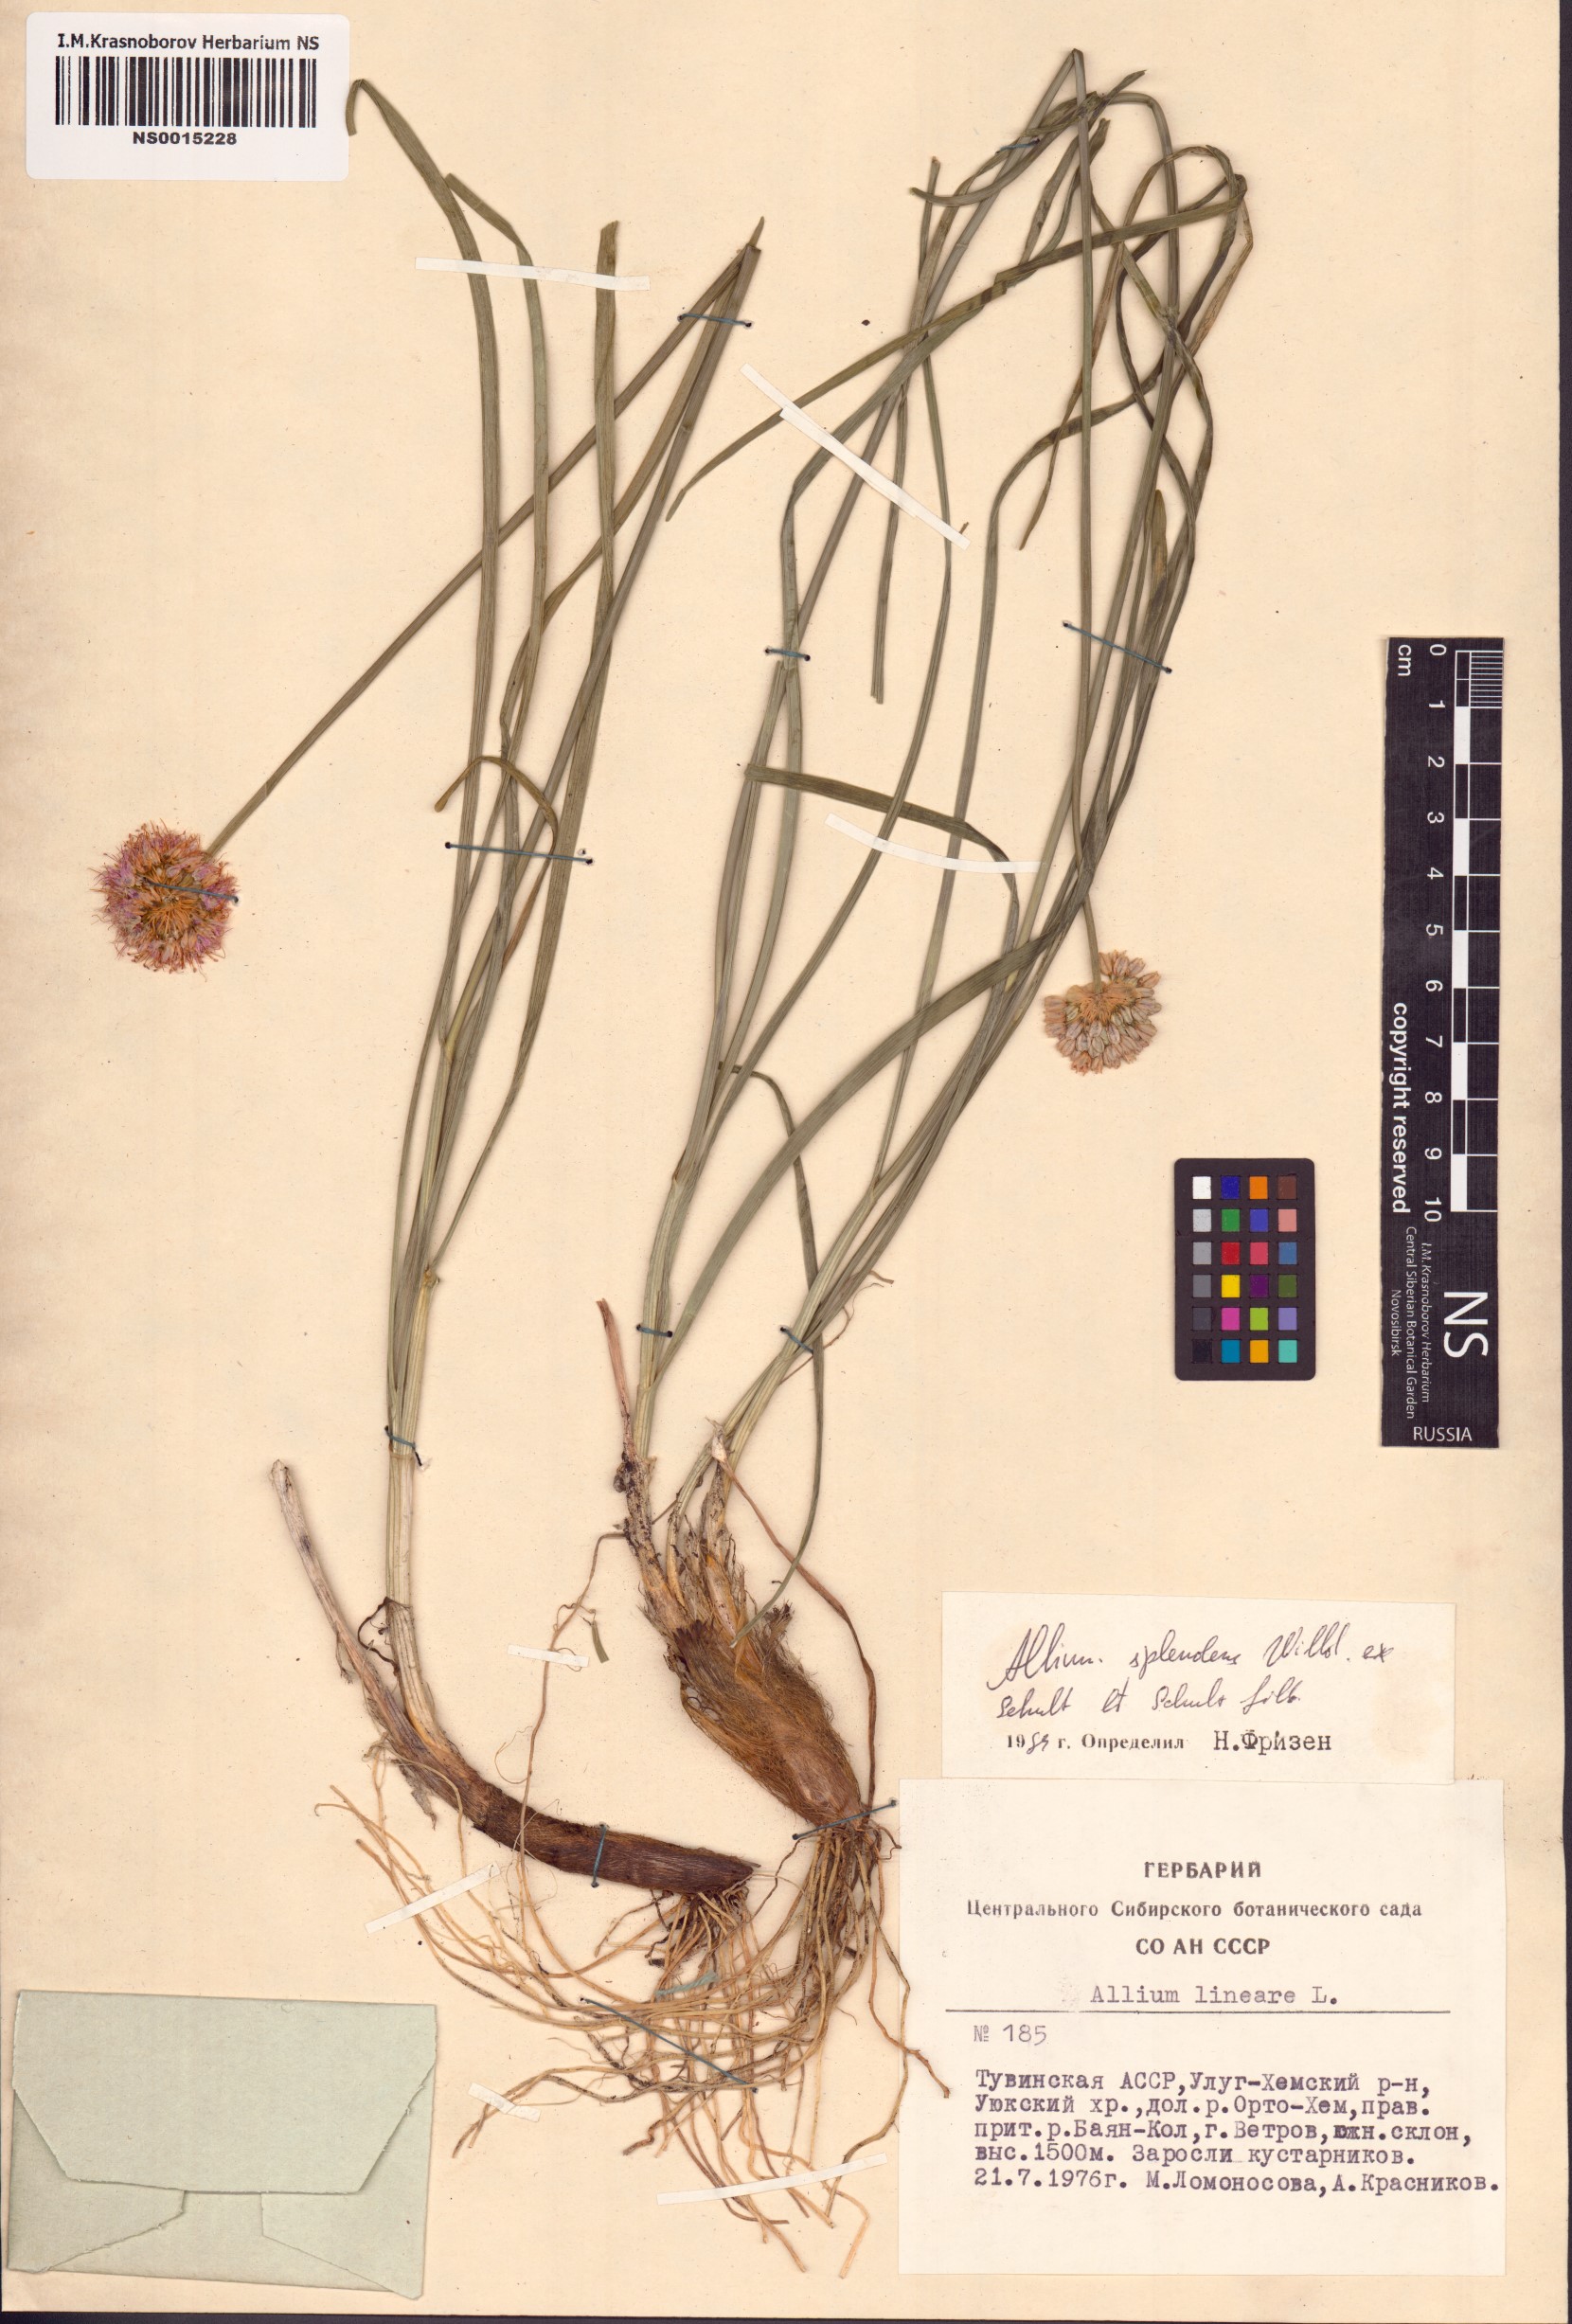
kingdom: Plantae
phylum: Tracheophyta
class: Liliopsida
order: Asparagales
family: Amaryllidaceae
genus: Allium
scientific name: Allium splendens
